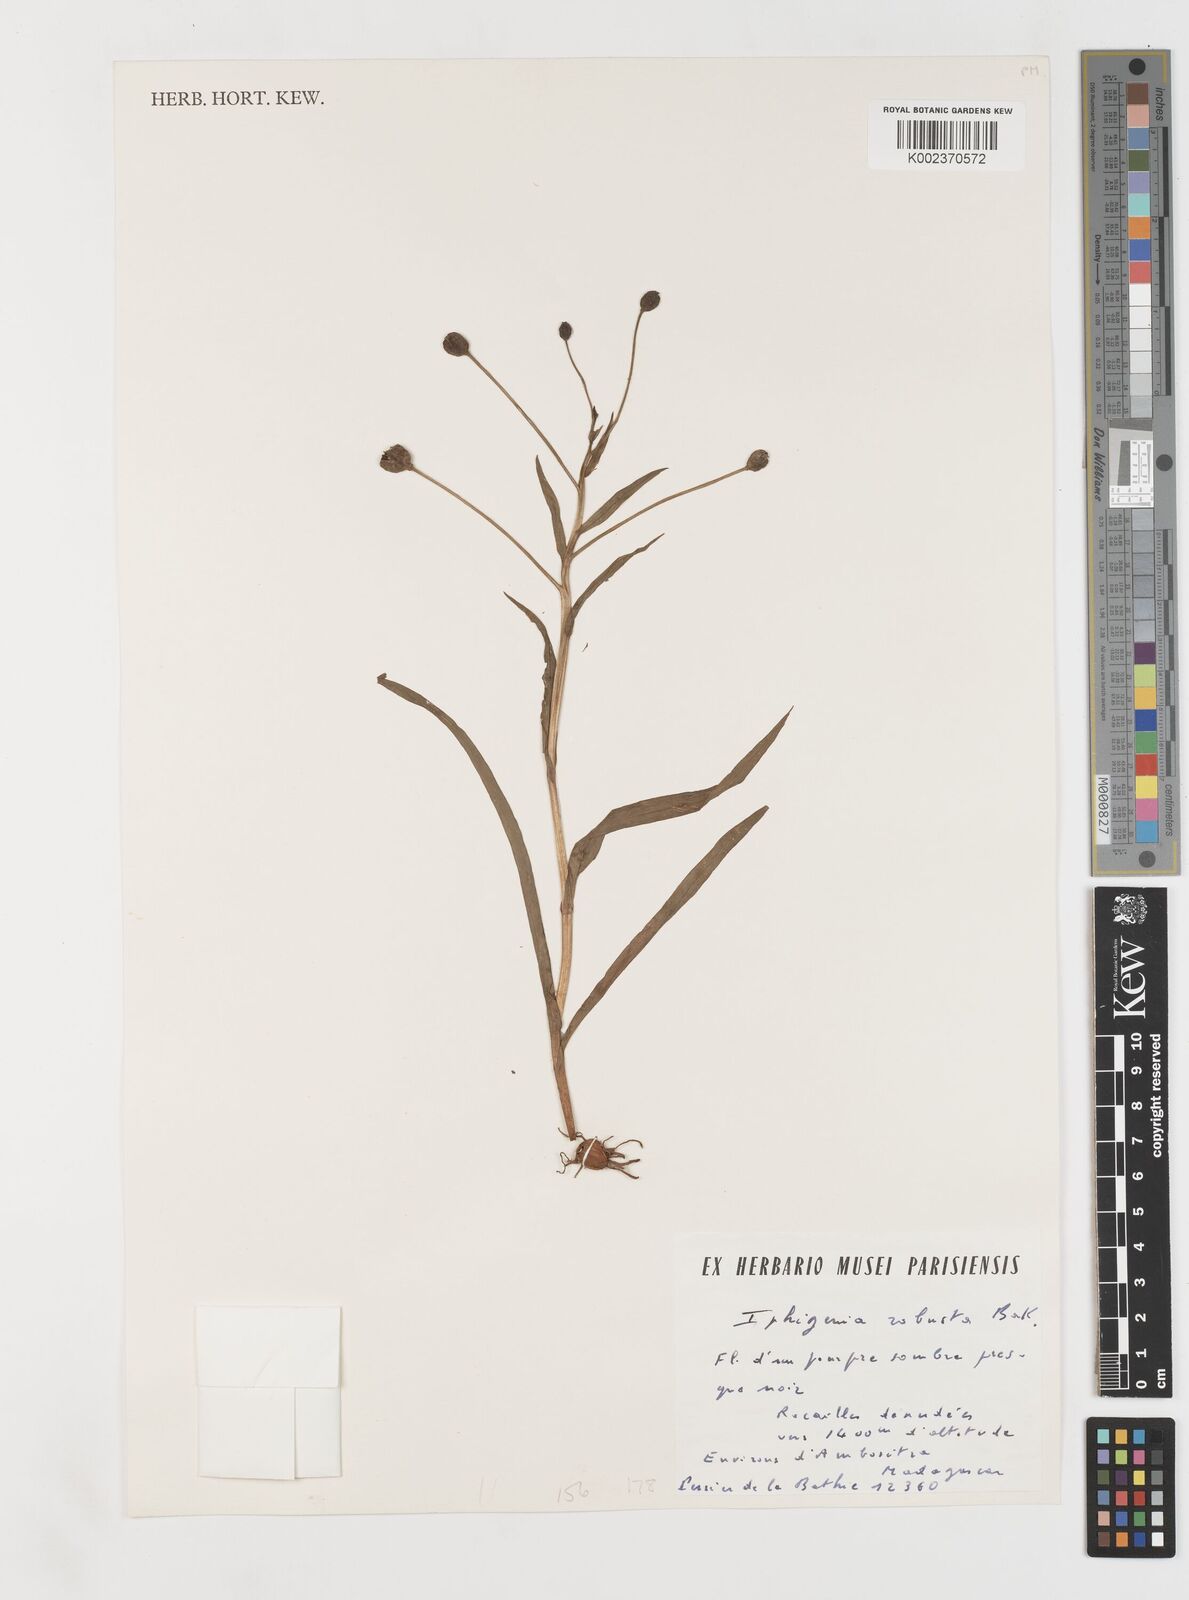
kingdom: Plantae
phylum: Tracheophyta
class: Liliopsida
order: Liliales
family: Colchicaceae
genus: Iphigenia
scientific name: Iphigenia robusta
